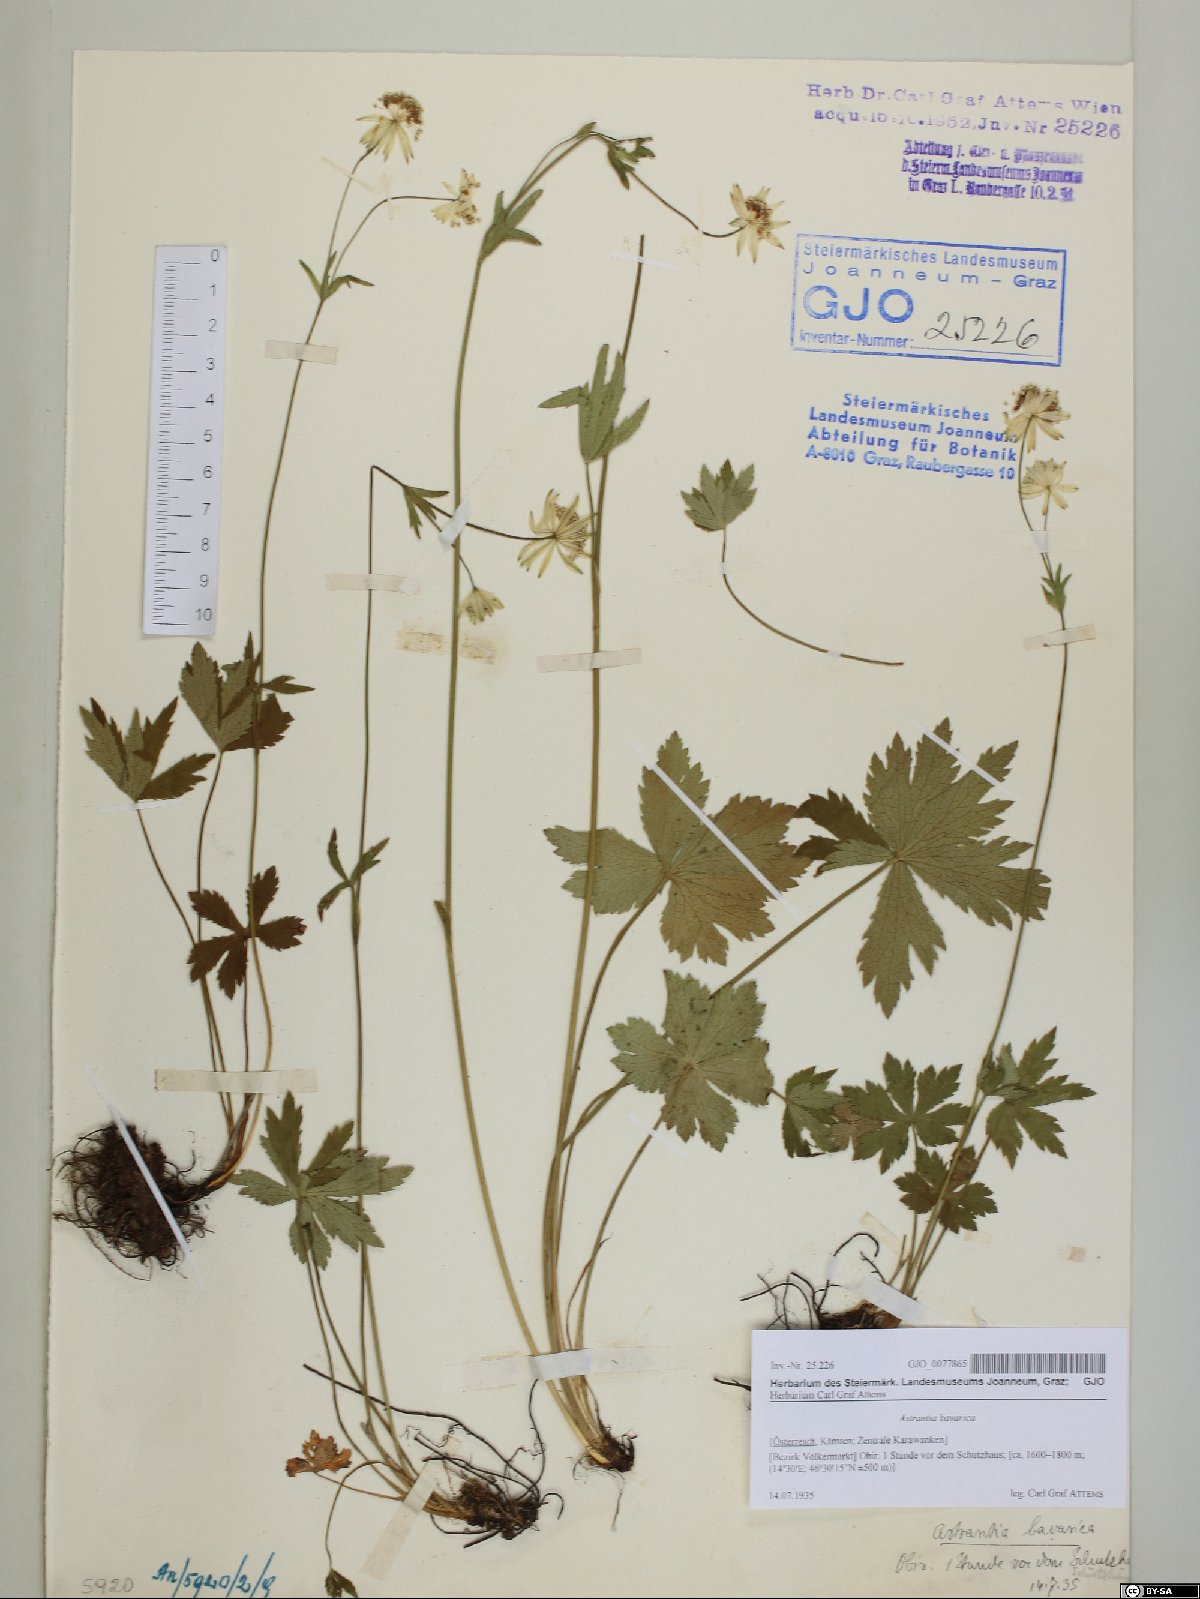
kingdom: Plantae
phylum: Tracheophyta
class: Magnoliopsida
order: Apiales
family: Apiaceae
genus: Astrantia
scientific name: Astrantia bavarica
